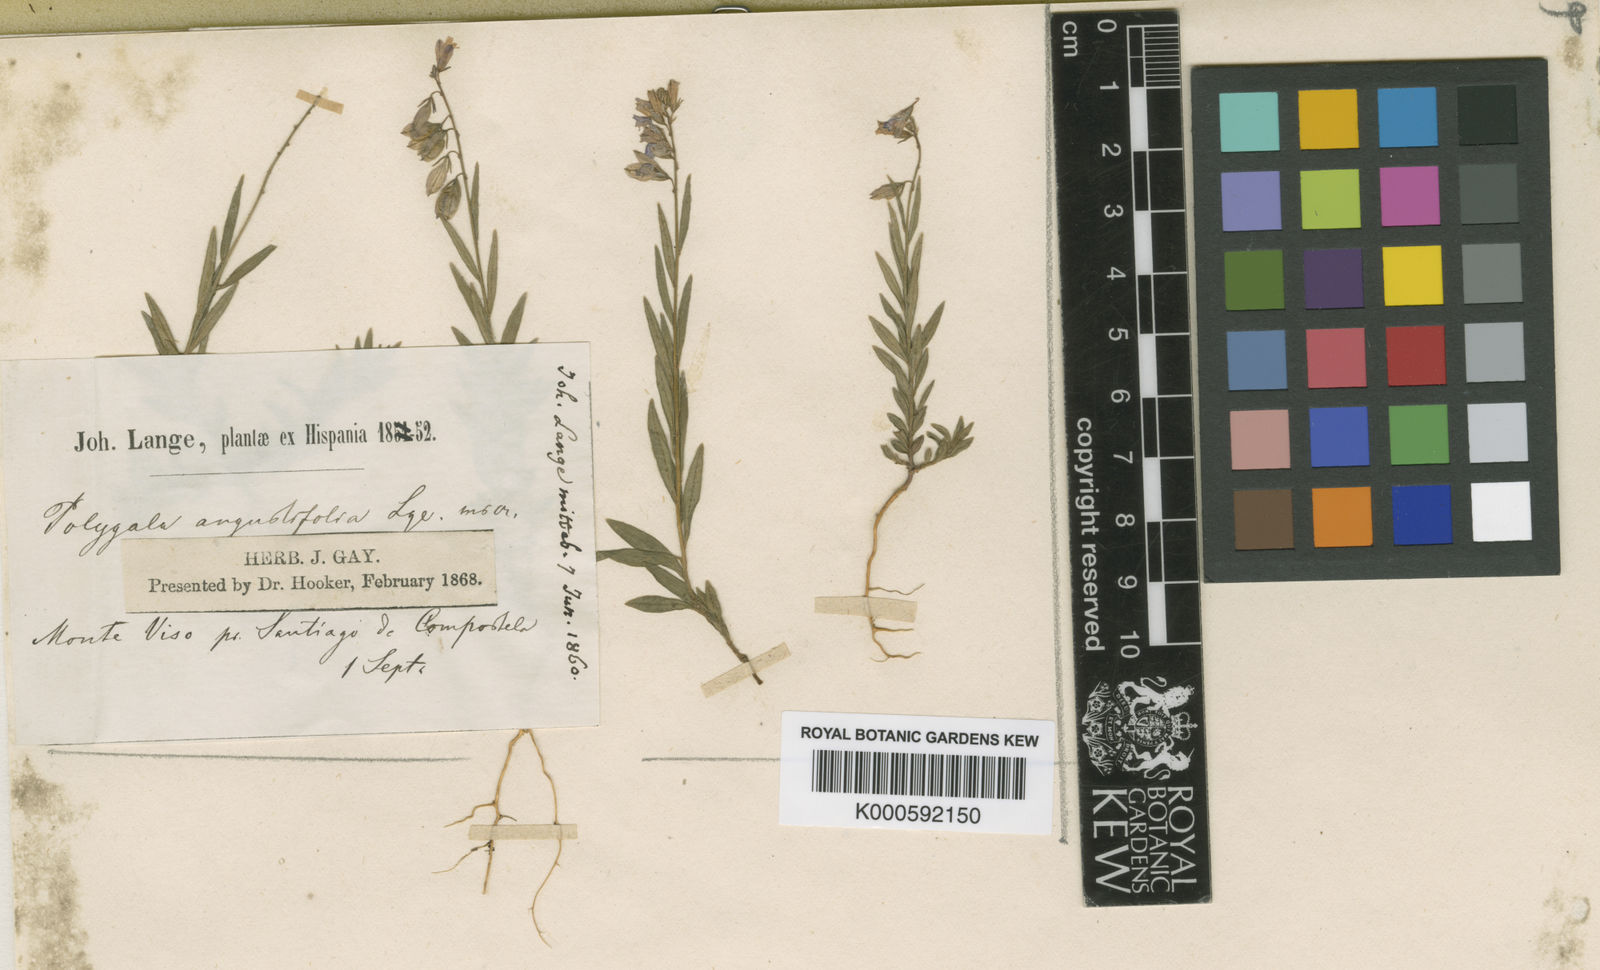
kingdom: Plantae
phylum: Tracheophyta
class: Magnoliopsida
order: Fabales
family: Polygalaceae
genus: Polygala
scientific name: Polygala vulgaris
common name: Common milkwort
